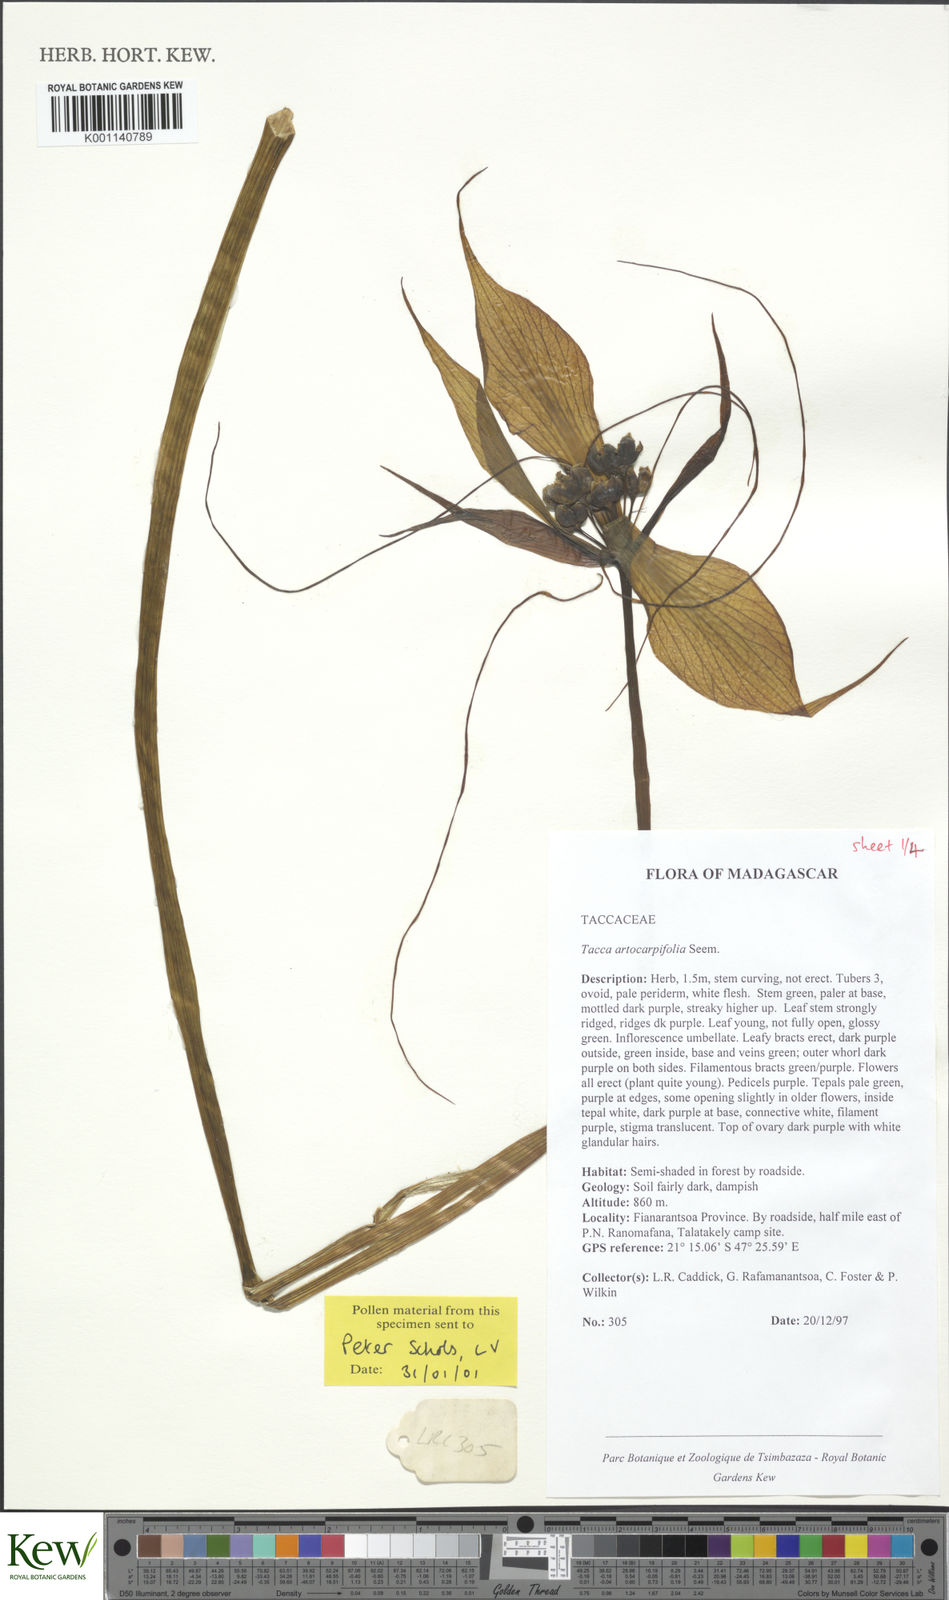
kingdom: Plantae
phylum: Tracheophyta
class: Liliopsida
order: Dioscoreales
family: Dioscoreaceae
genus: Tacca
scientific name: Tacca leontopetaloides
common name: Arrowroot
